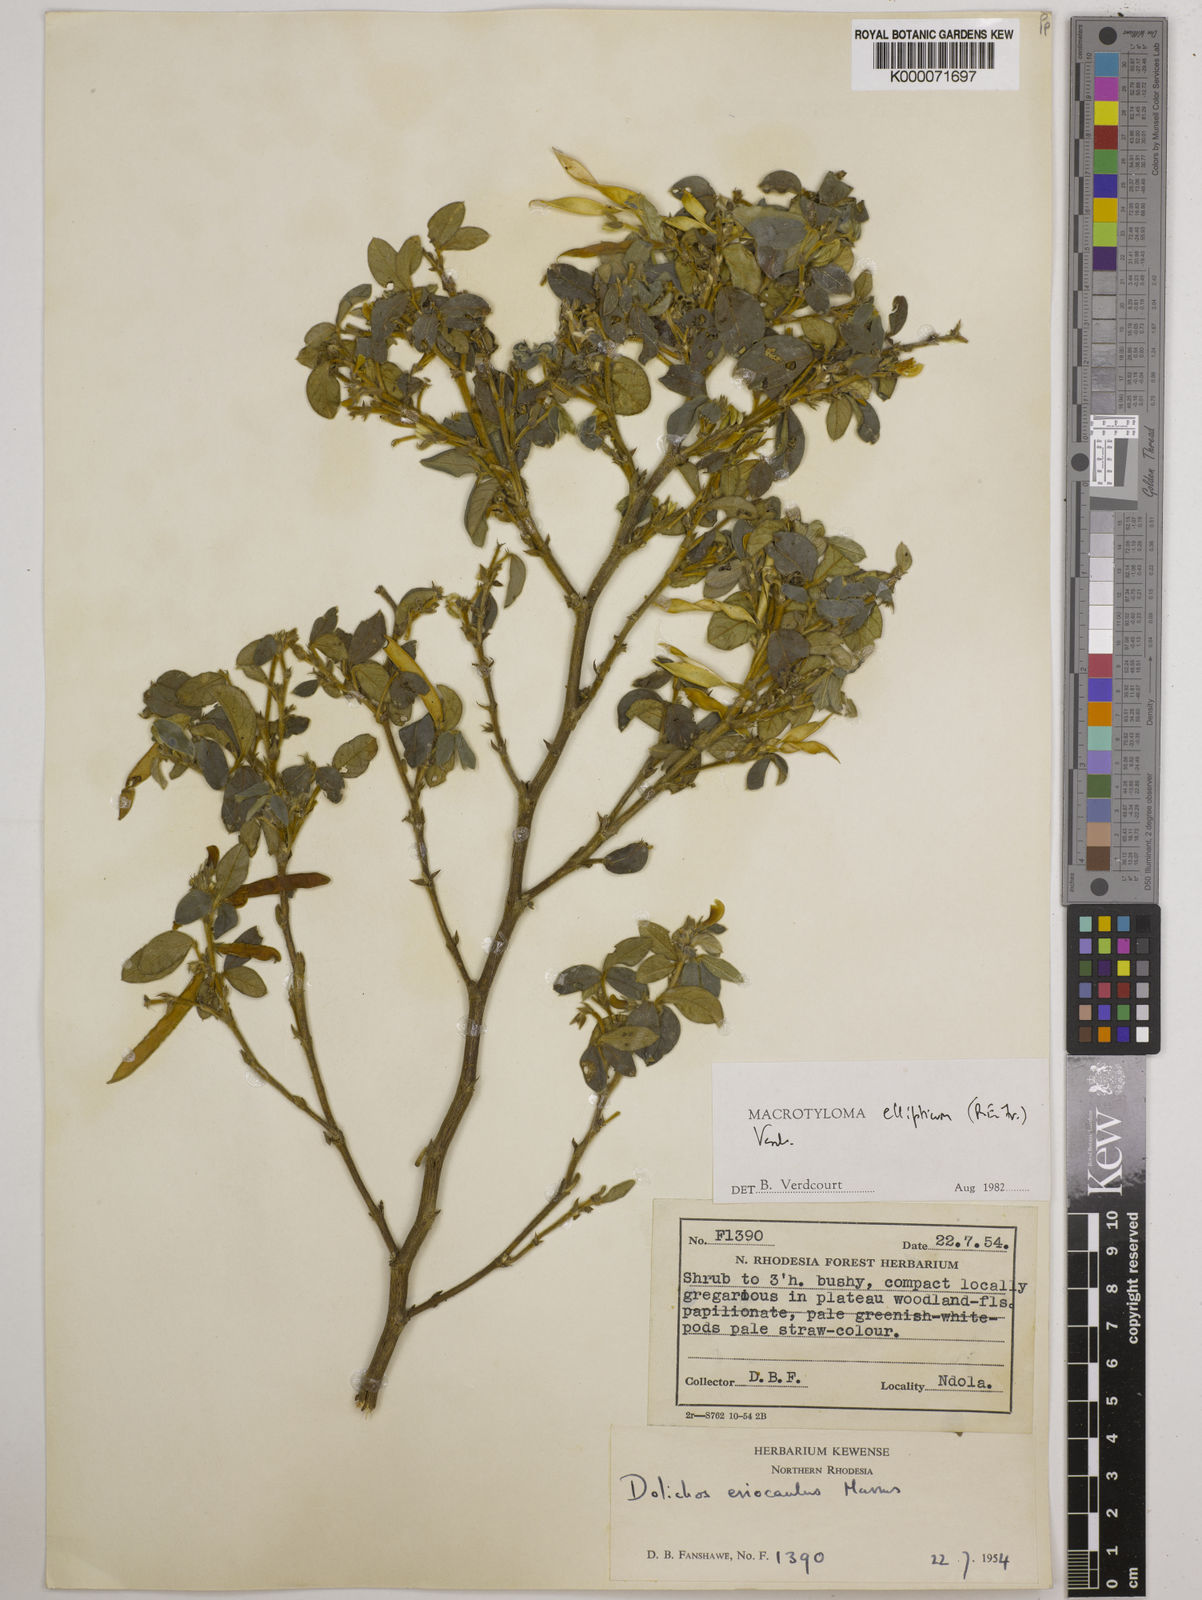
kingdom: Plantae
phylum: Tracheophyta
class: Magnoliopsida
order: Fabales
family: Fabaceae
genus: Macrotyloma
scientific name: Macrotyloma ellipticum
